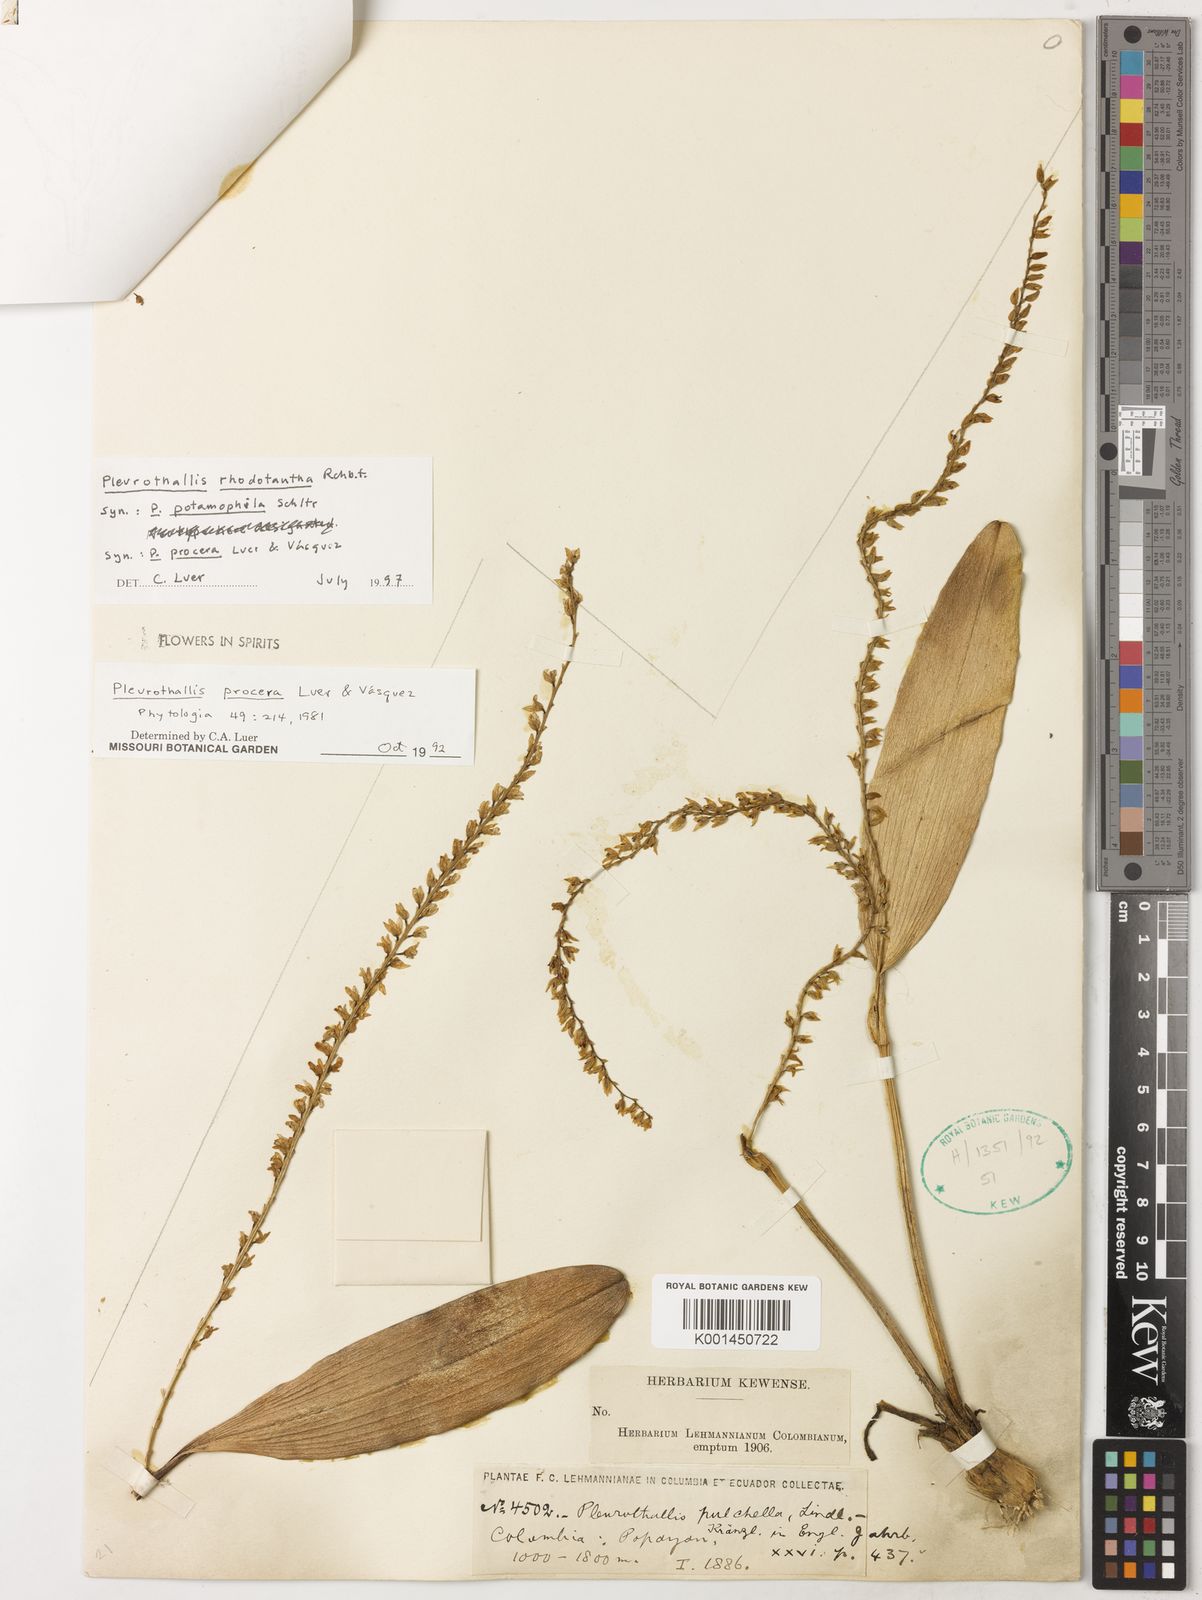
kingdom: Plantae
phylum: Tracheophyta
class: Liliopsida
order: Asparagales
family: Orchidaceae
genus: Stelis
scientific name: Stelis rhodotantha
